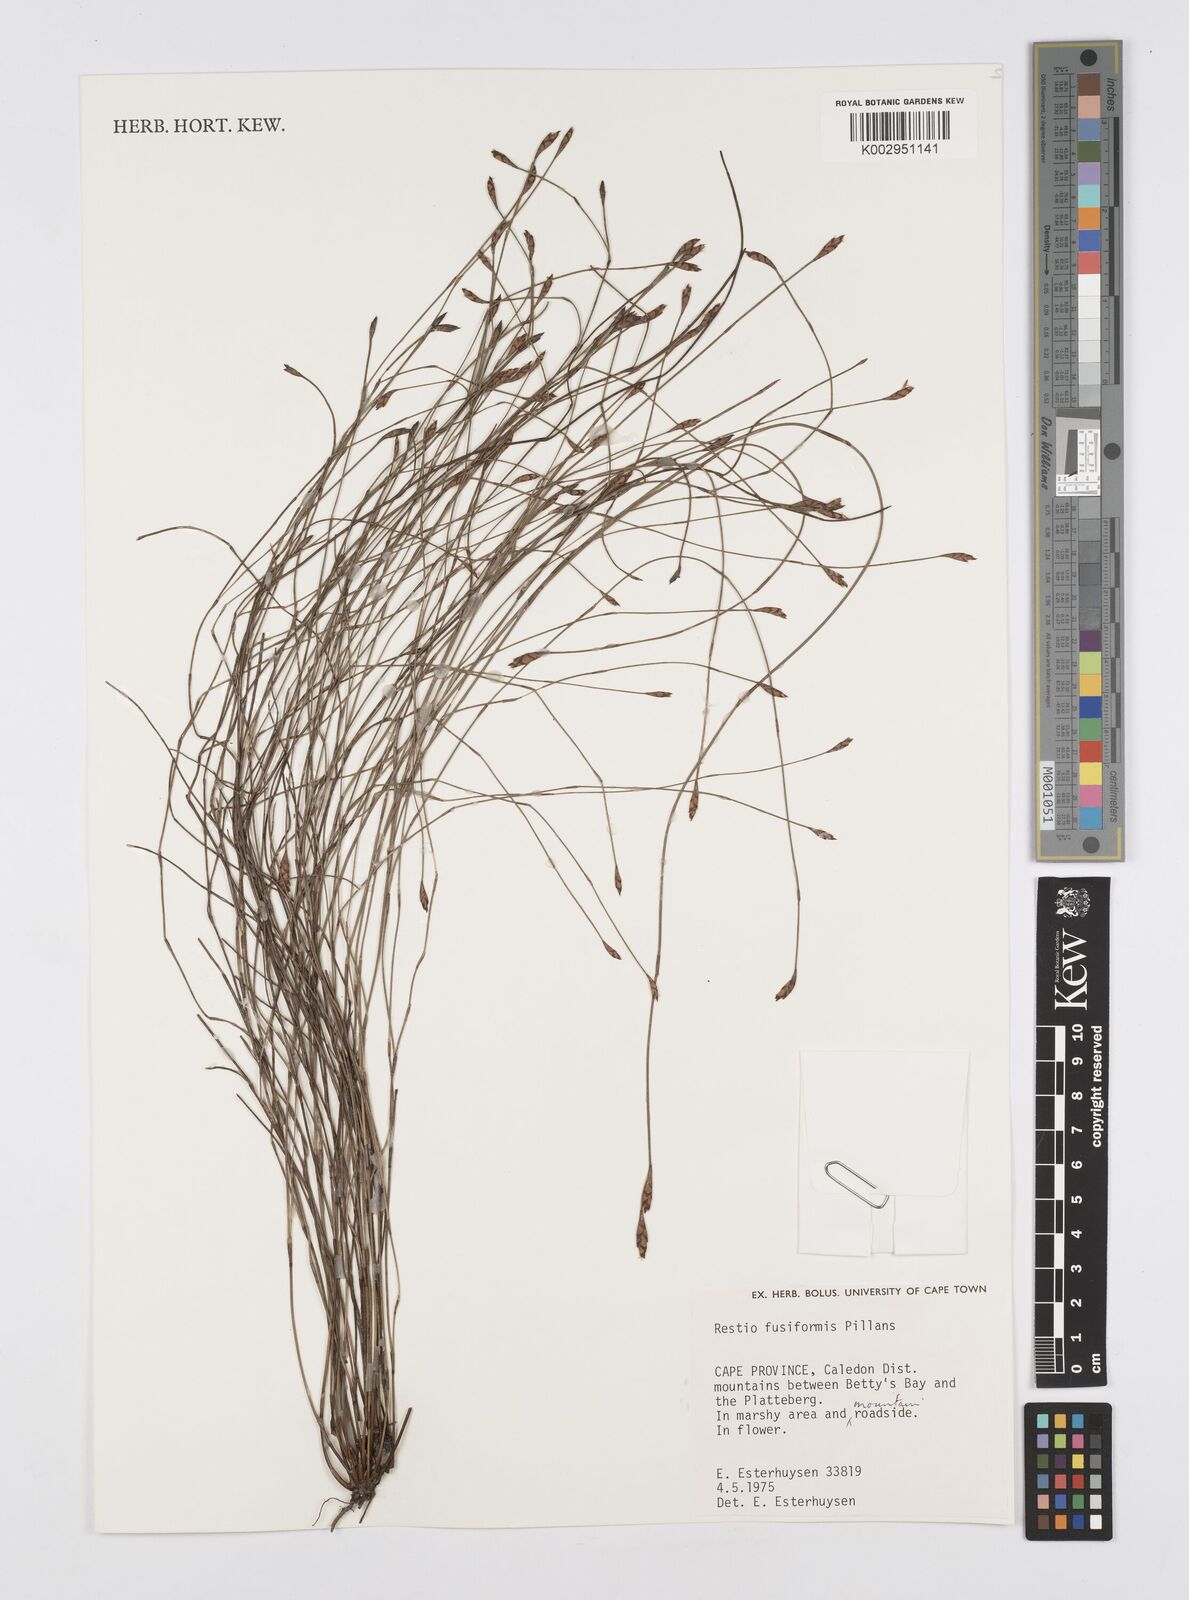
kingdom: Plantae
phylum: Tracheophyta
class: Liliopsida
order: Poales
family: Restionaceae
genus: Restio
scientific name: Restio fusiformis
